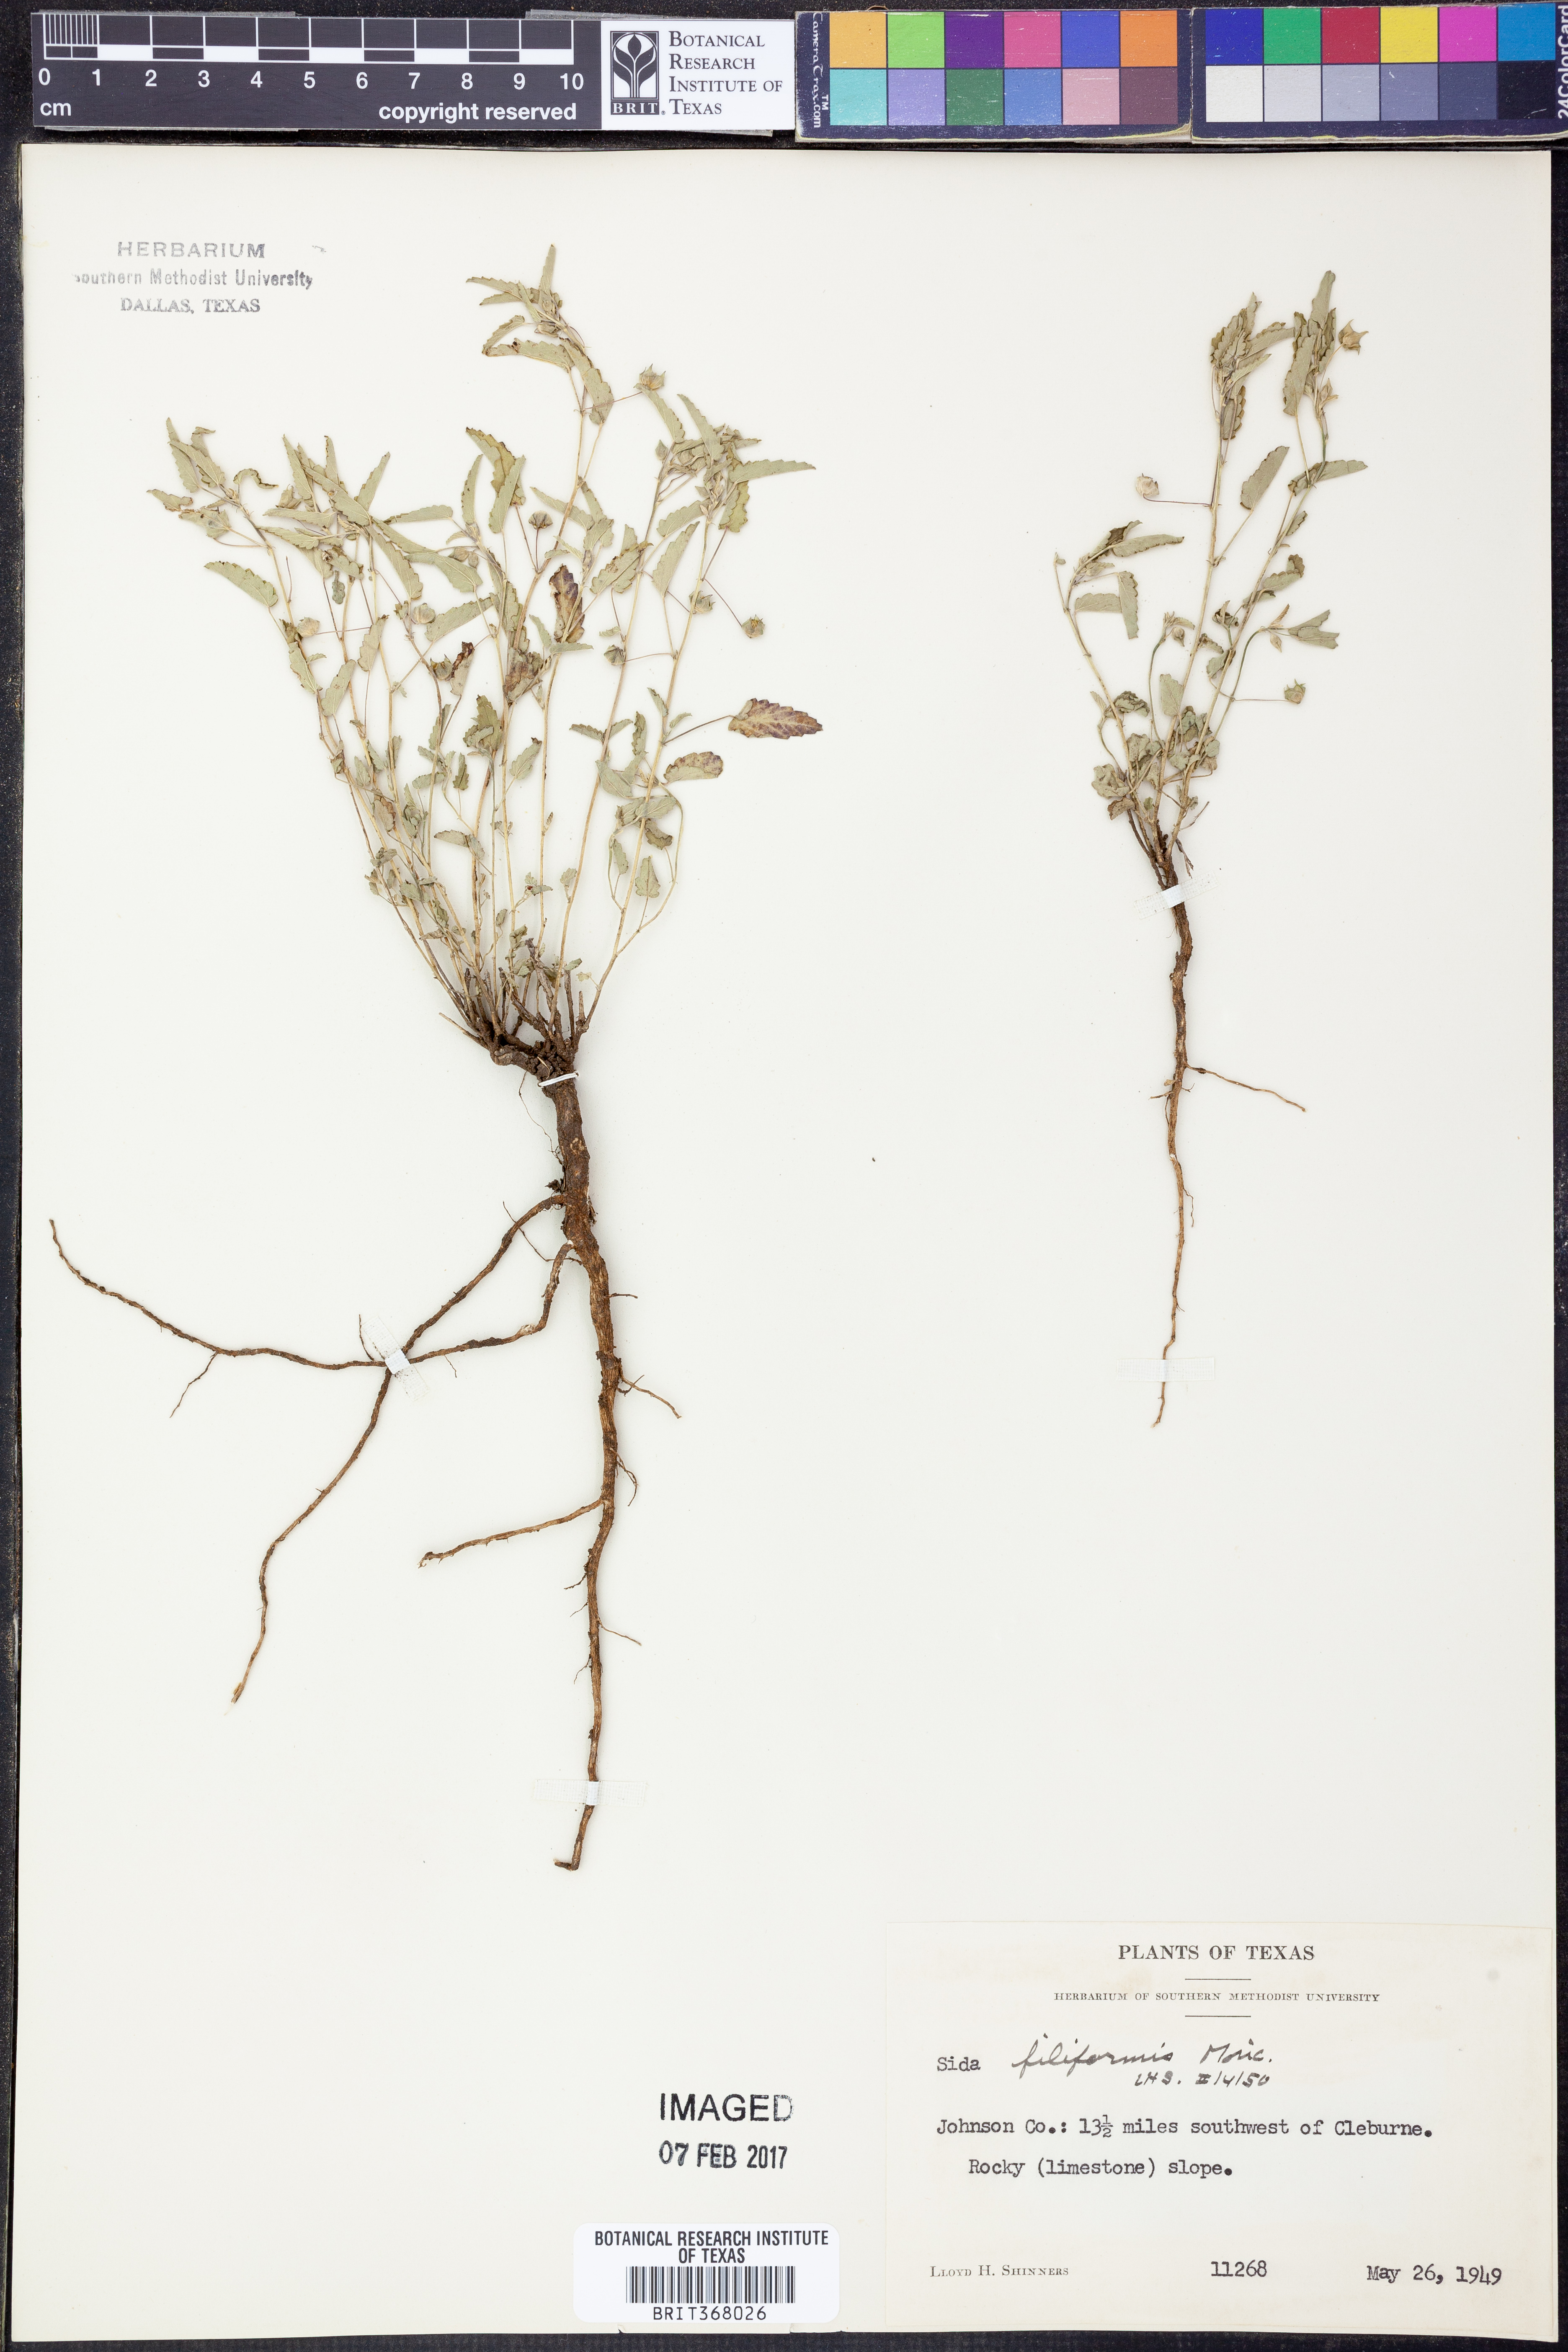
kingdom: Plantae
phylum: Tracheophyta
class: Magnoliopsida
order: Malvales
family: Malvaceae
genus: Sida
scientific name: Sida abutilifolia
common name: Spreading fanpetals
